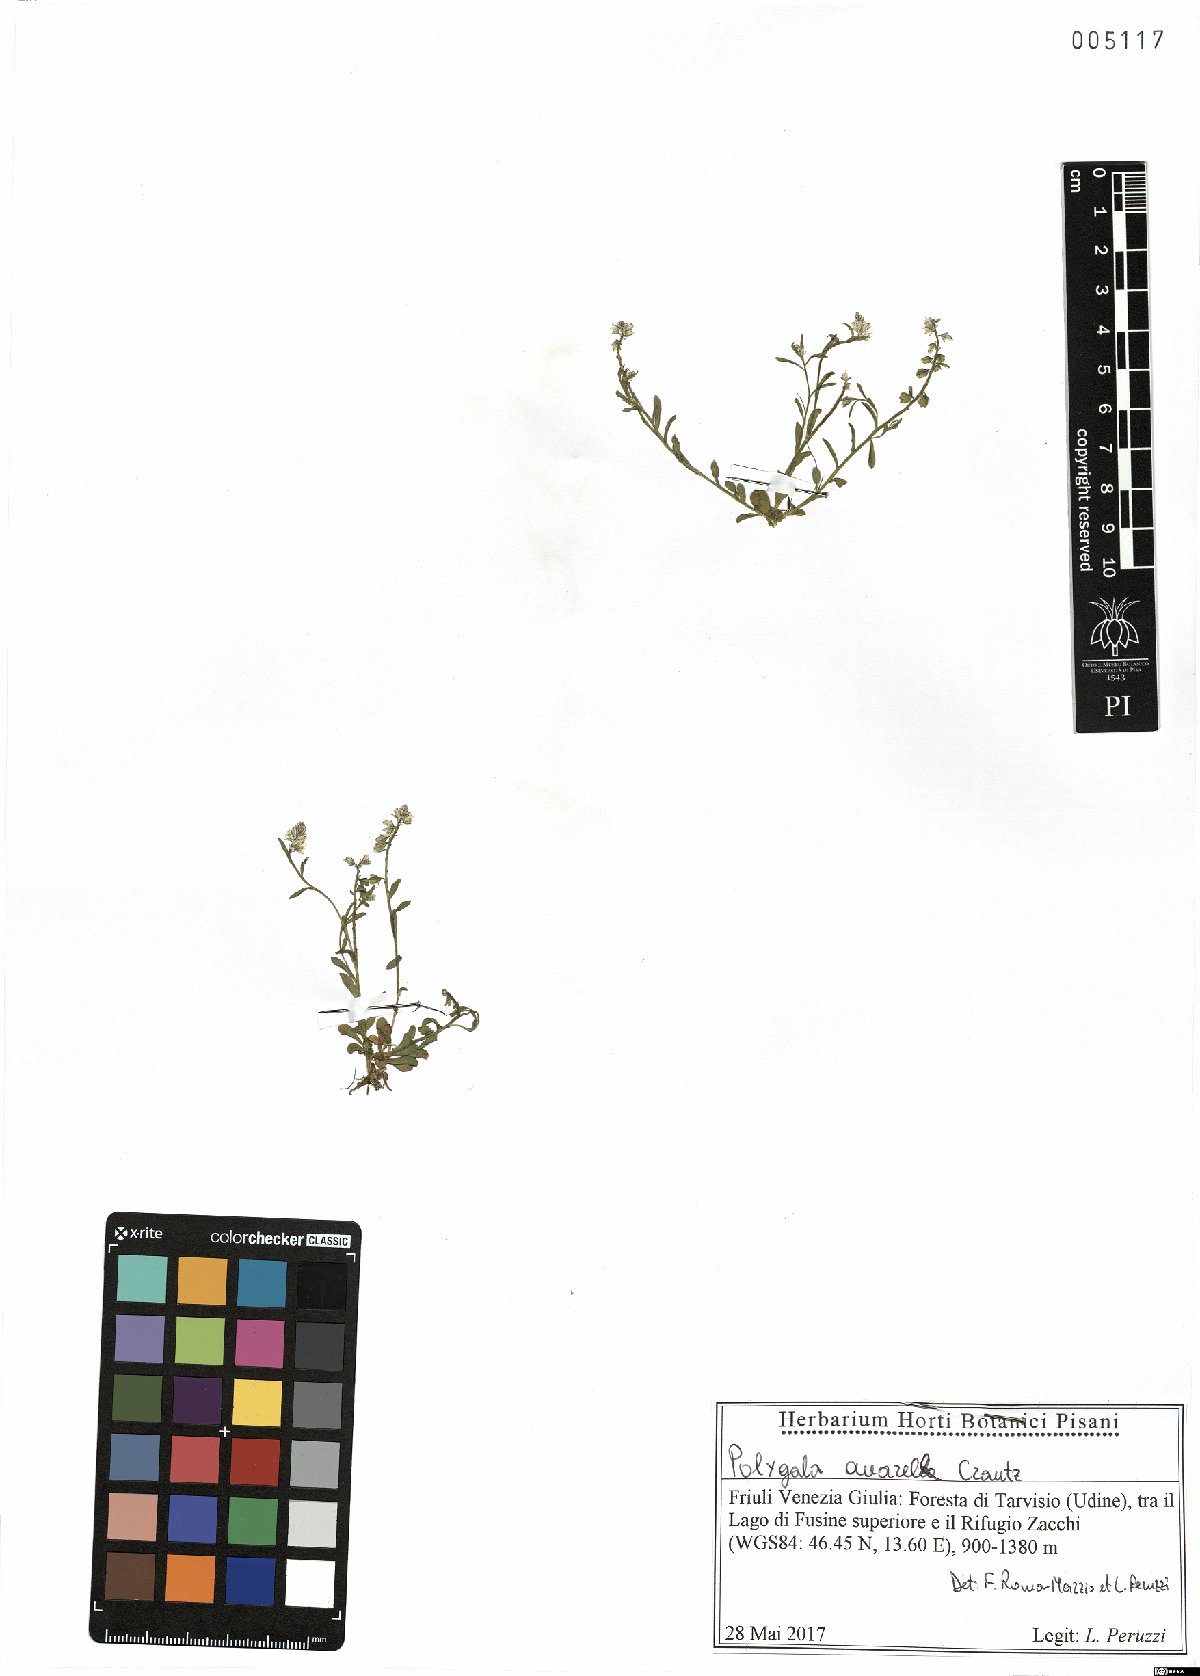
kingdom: Plantae
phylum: Tracheophyta
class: Magnoliopsida
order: Fabales
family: Polygalaceae
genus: Polygala
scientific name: Polygala amarella
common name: Dwarf milkwort
